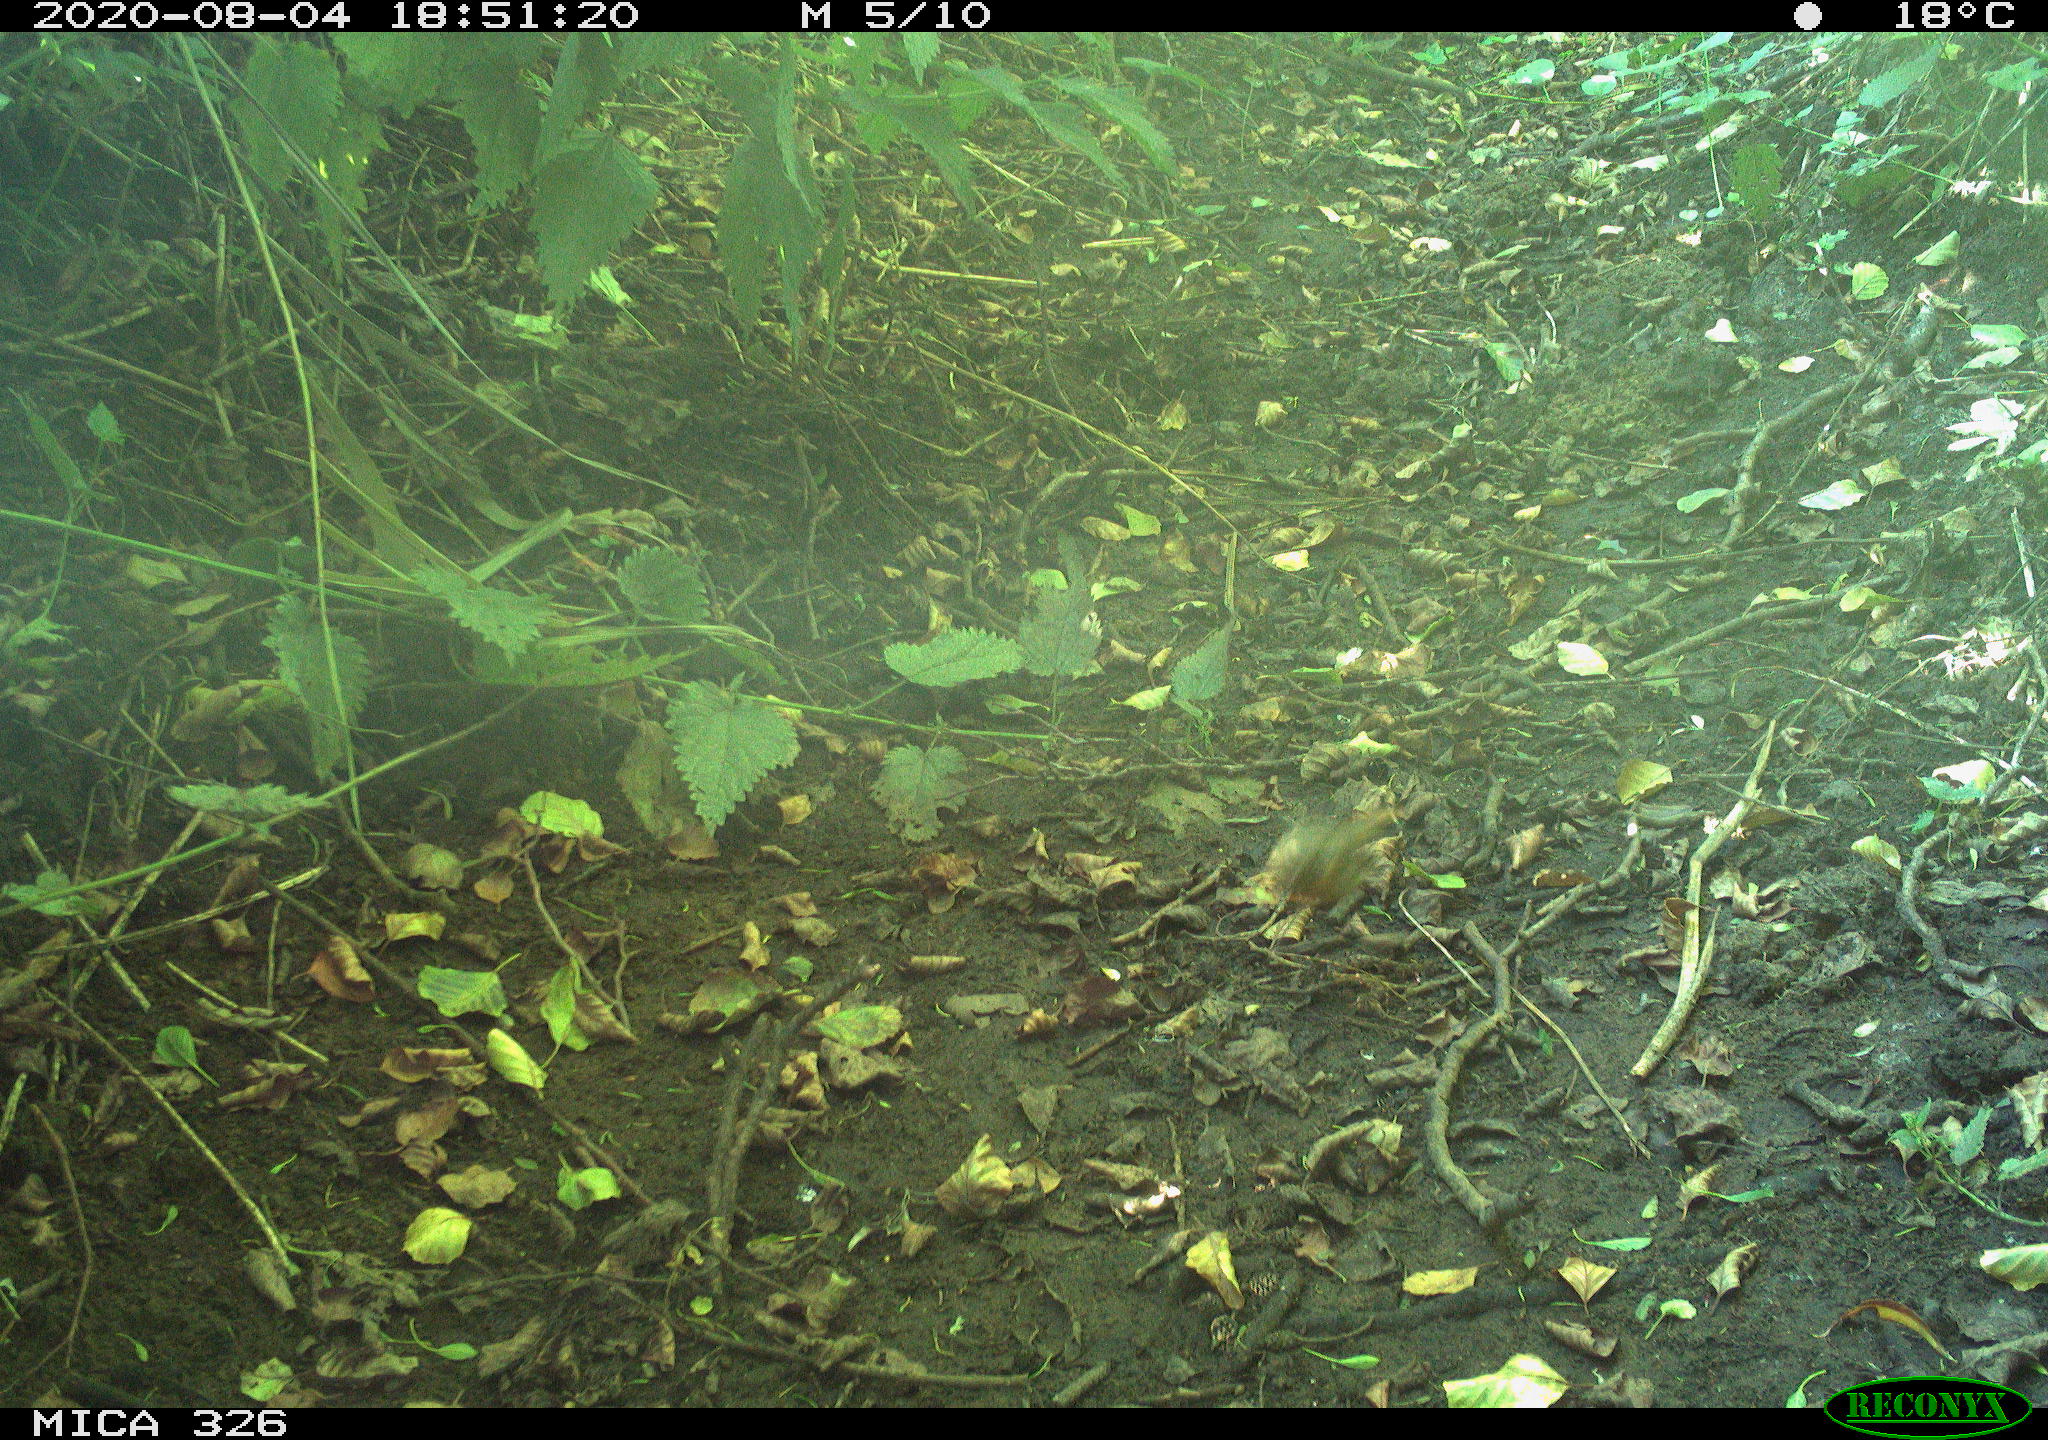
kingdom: Animalia
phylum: Chordata
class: Aves
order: Passeriformes
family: Muscicapidae
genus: Erithacus
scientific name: Erithacus rubecula
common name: European robin
